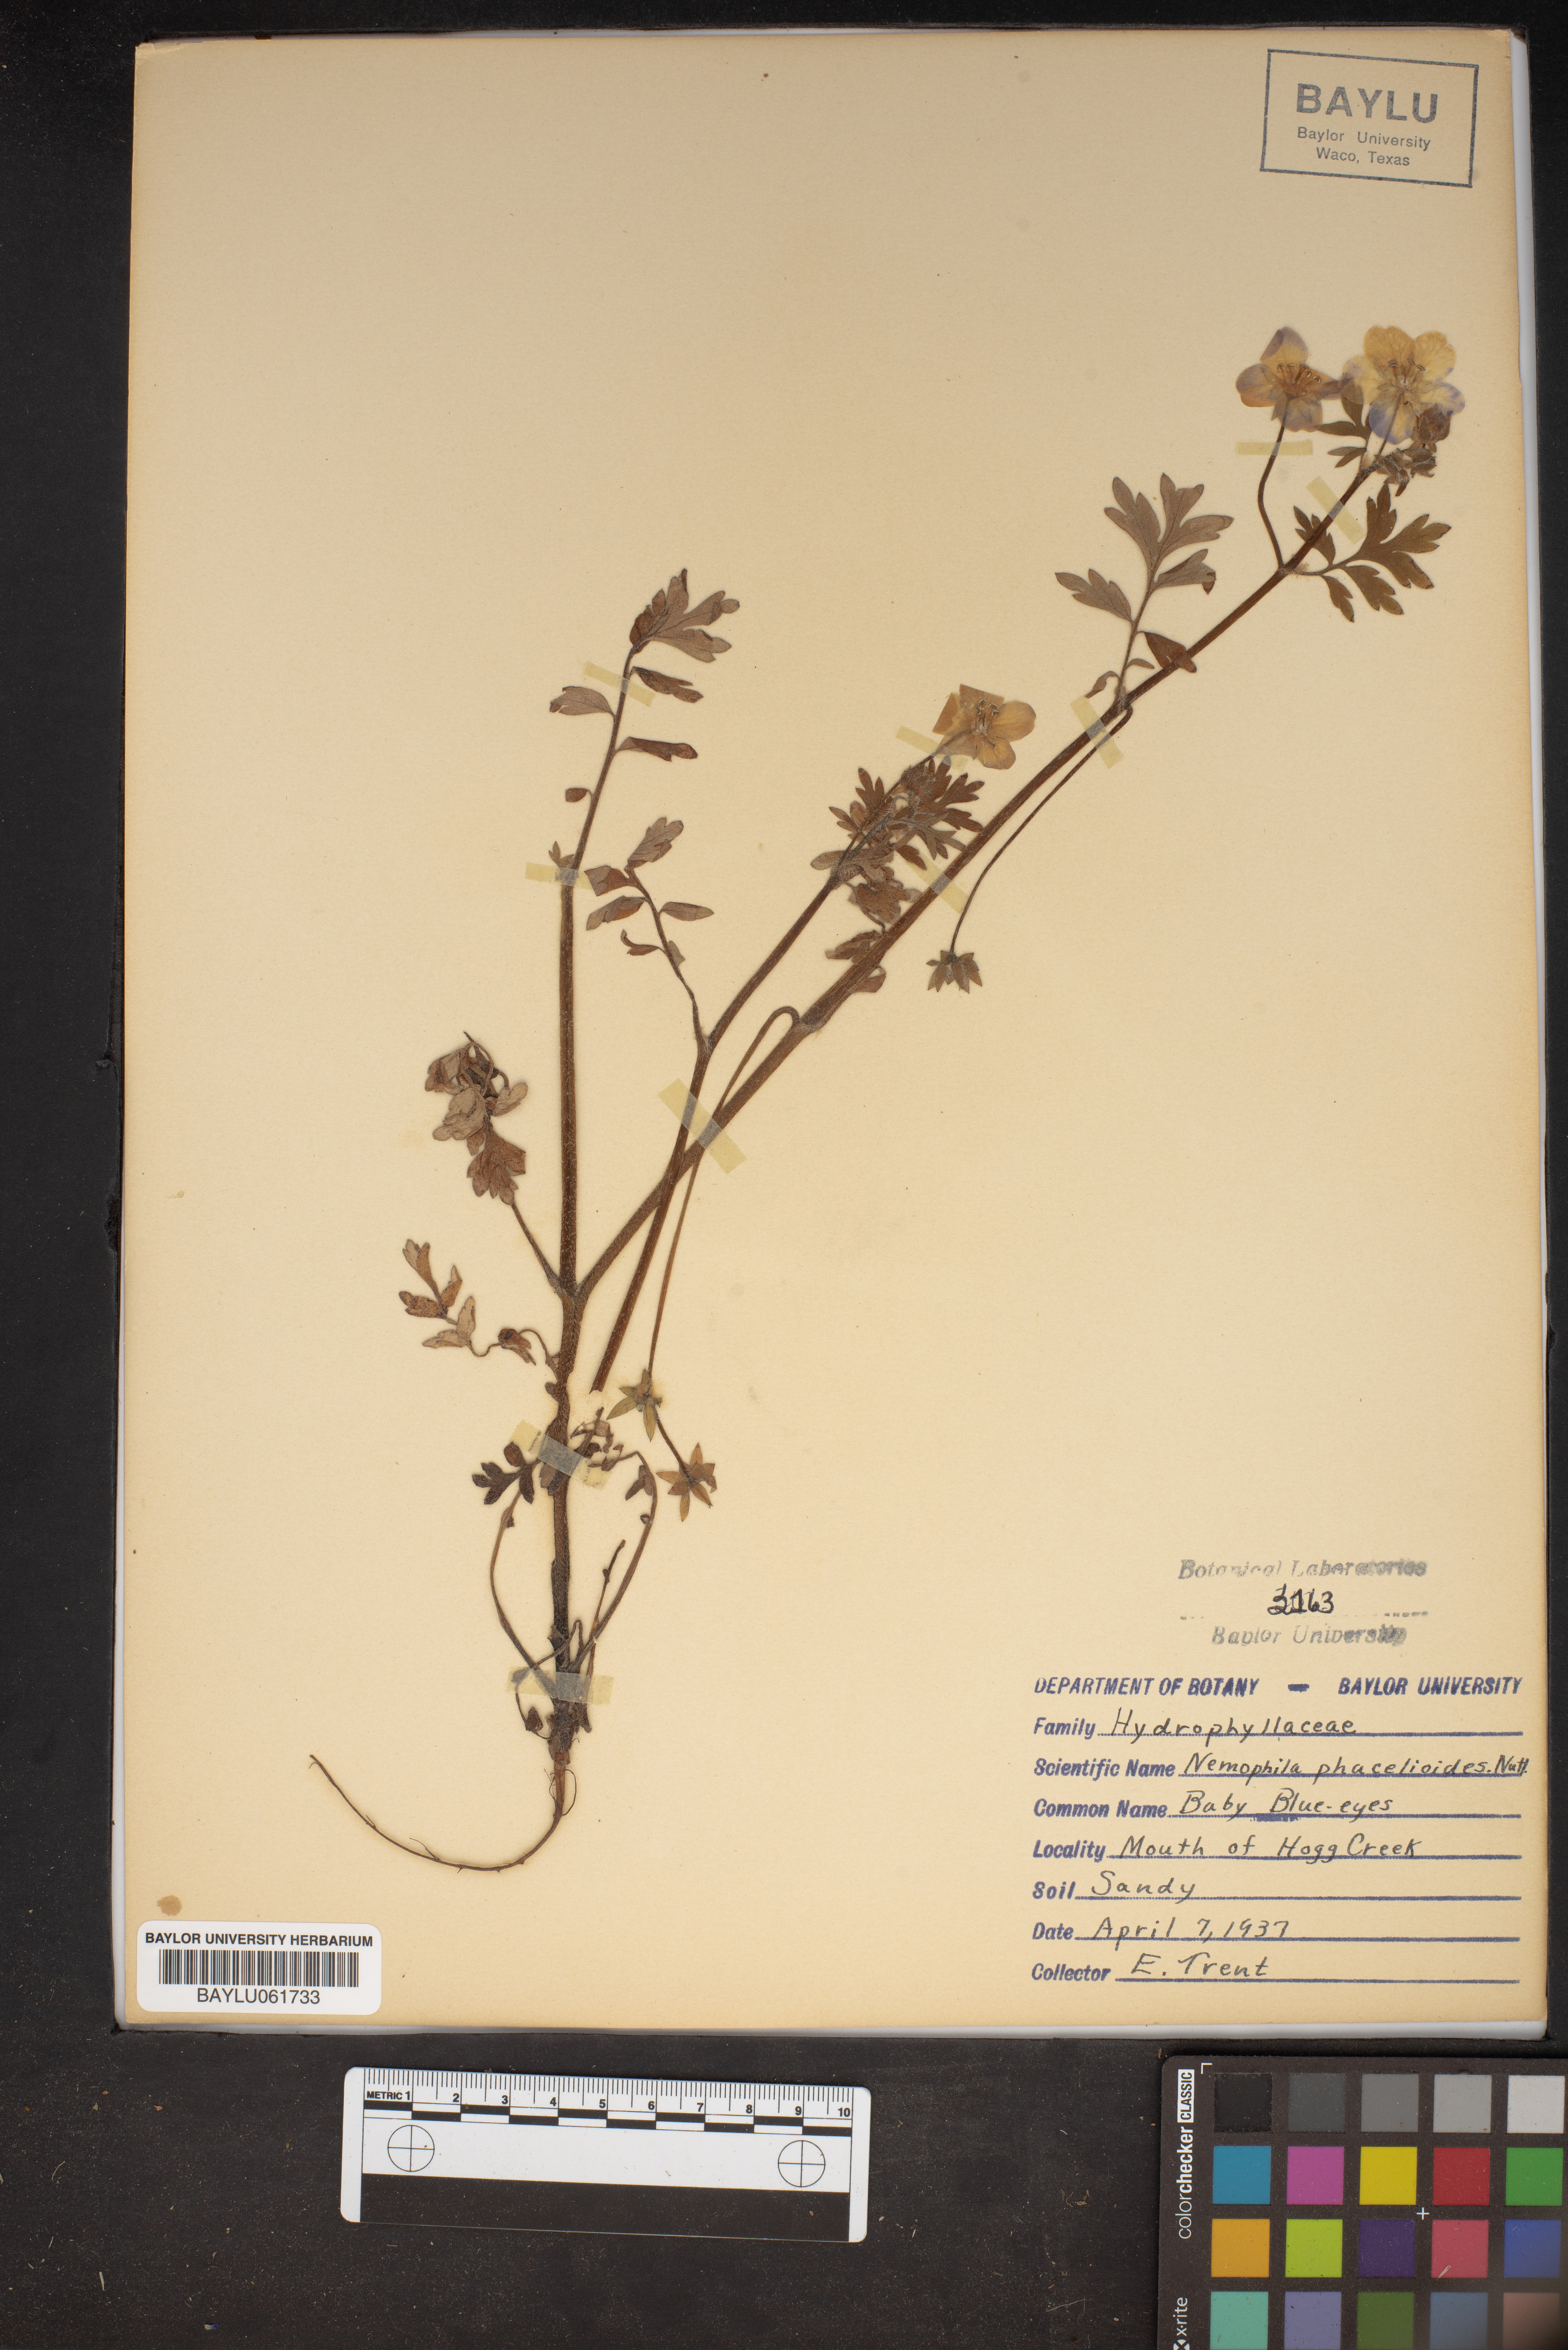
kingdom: Plantae
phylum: Tracheophyta
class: Magnoliopsida
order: Boraginales
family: Hydrophyllaceae
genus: Nemophila
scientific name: Nemophila phacelioides
